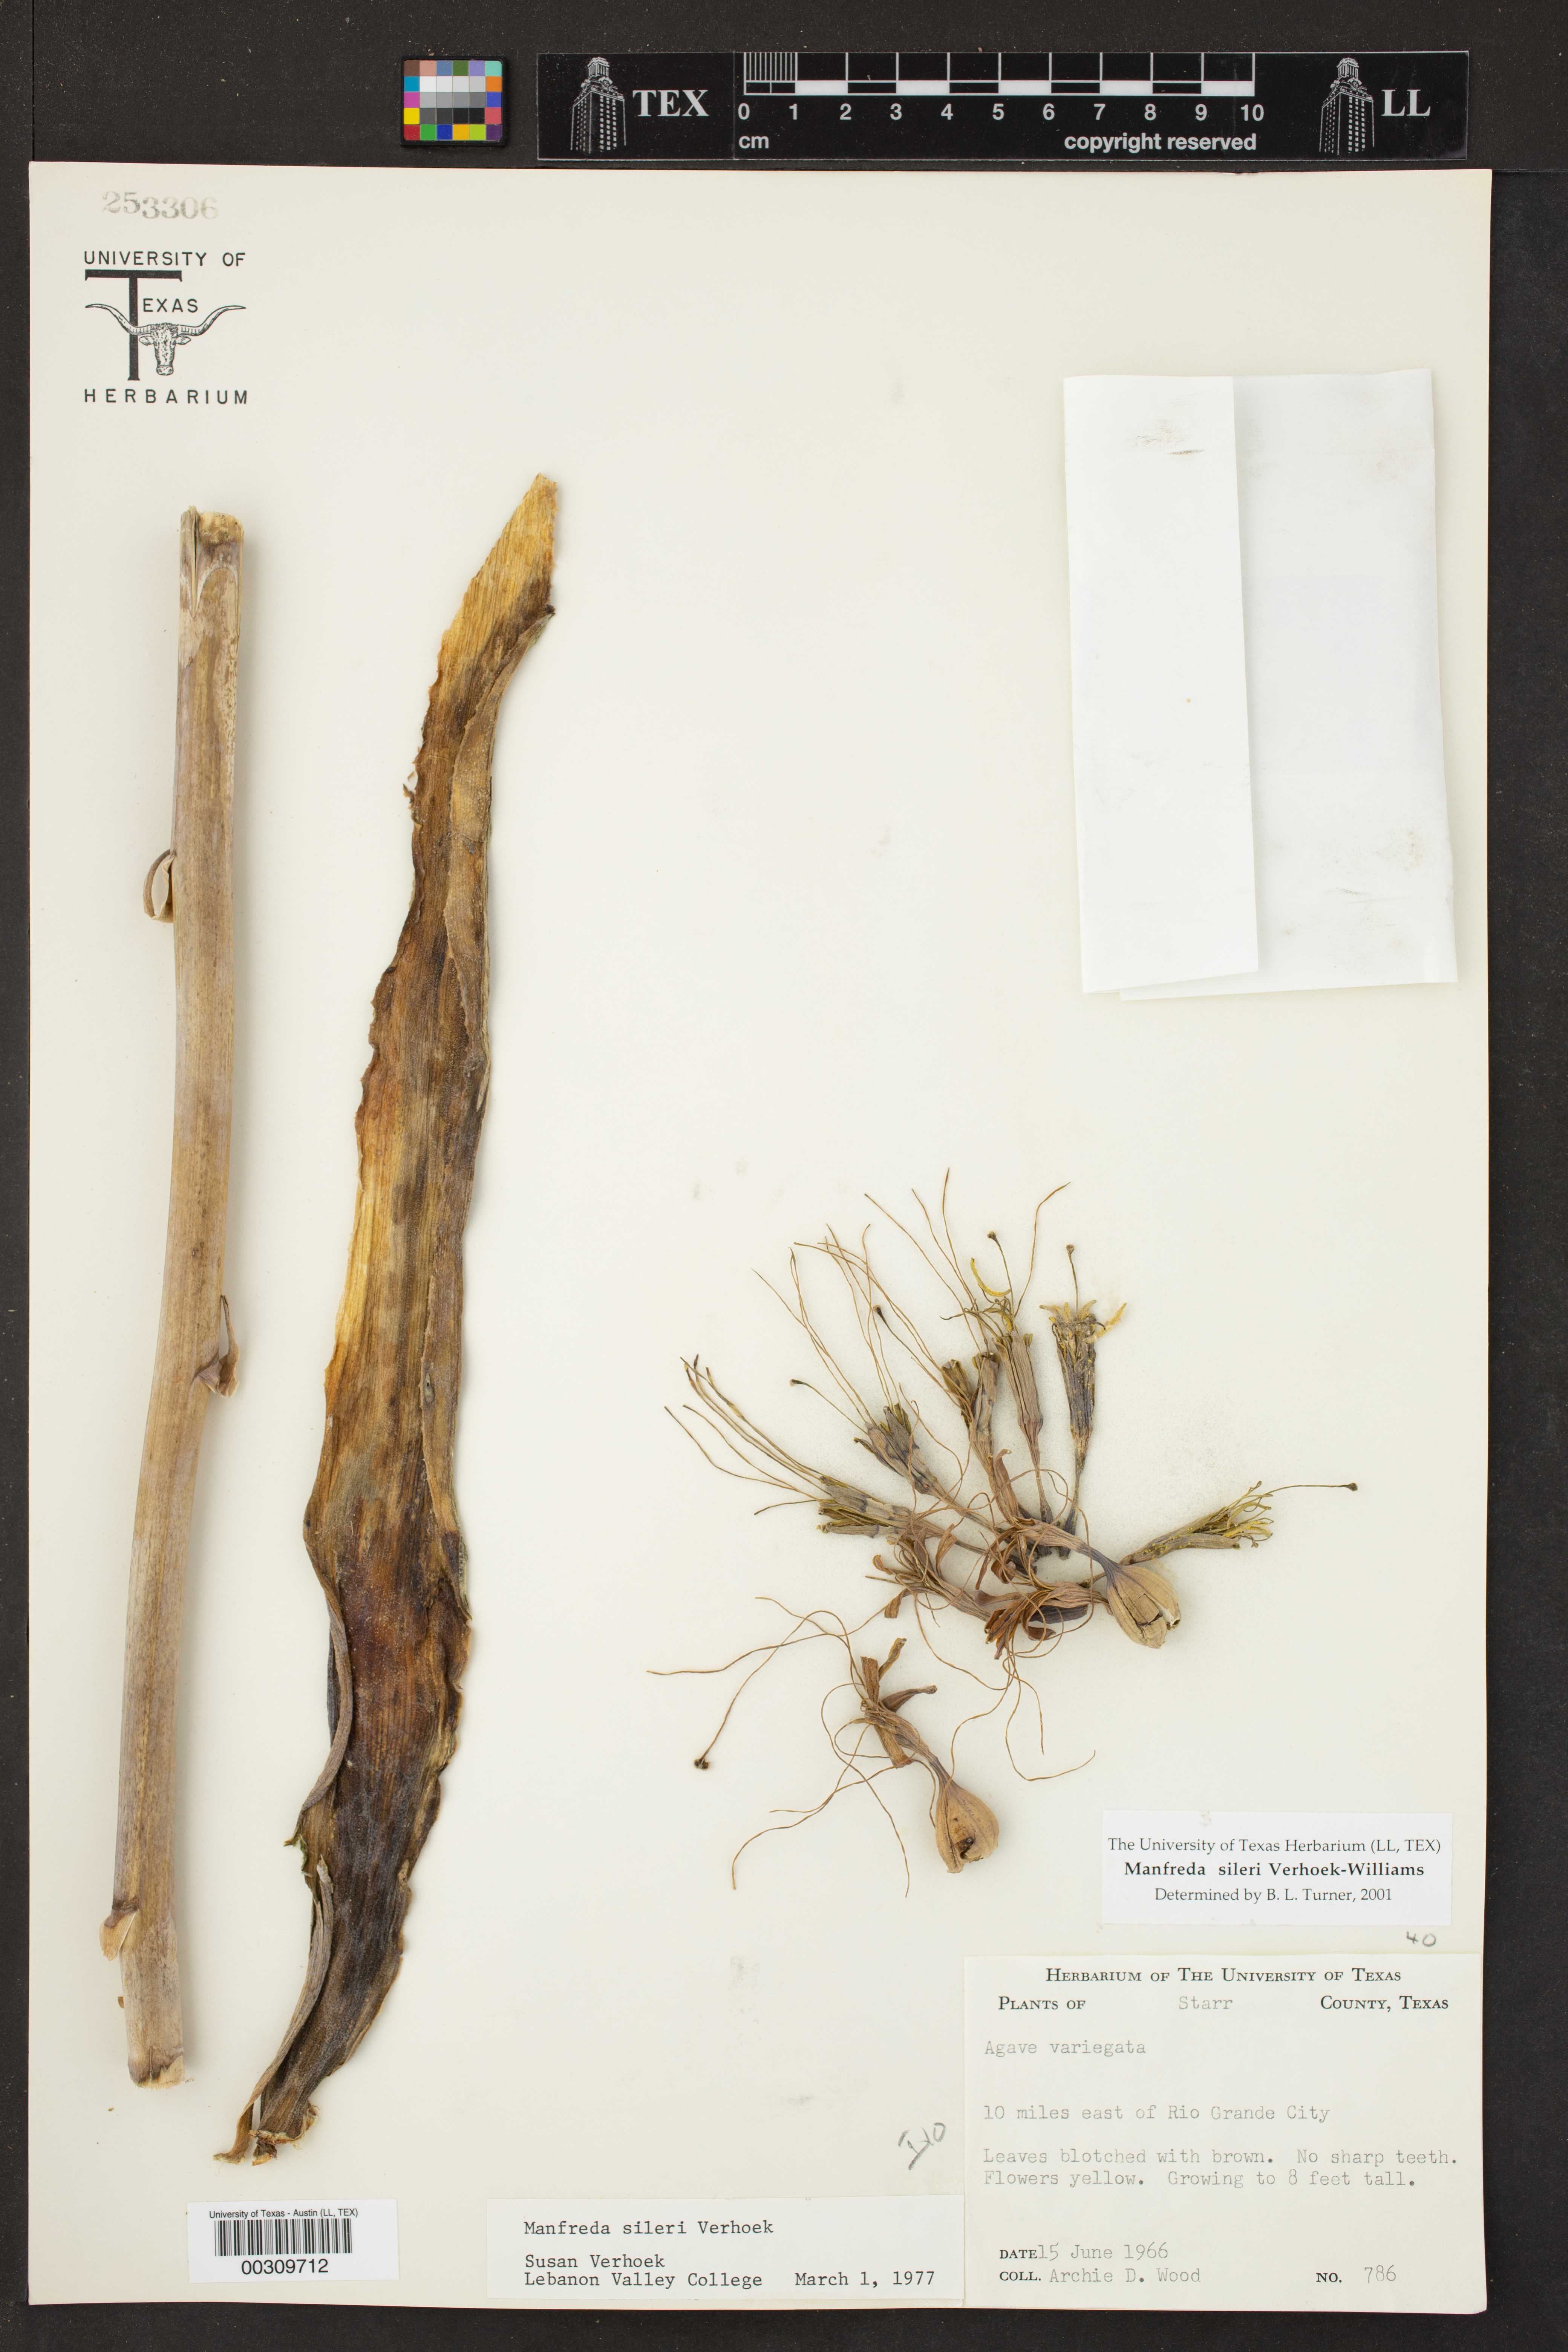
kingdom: Plantae
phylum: Tracheophyta
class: Liliopsida
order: Asparagales
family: Asparagaceae
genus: Agave
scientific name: Agave sileri
